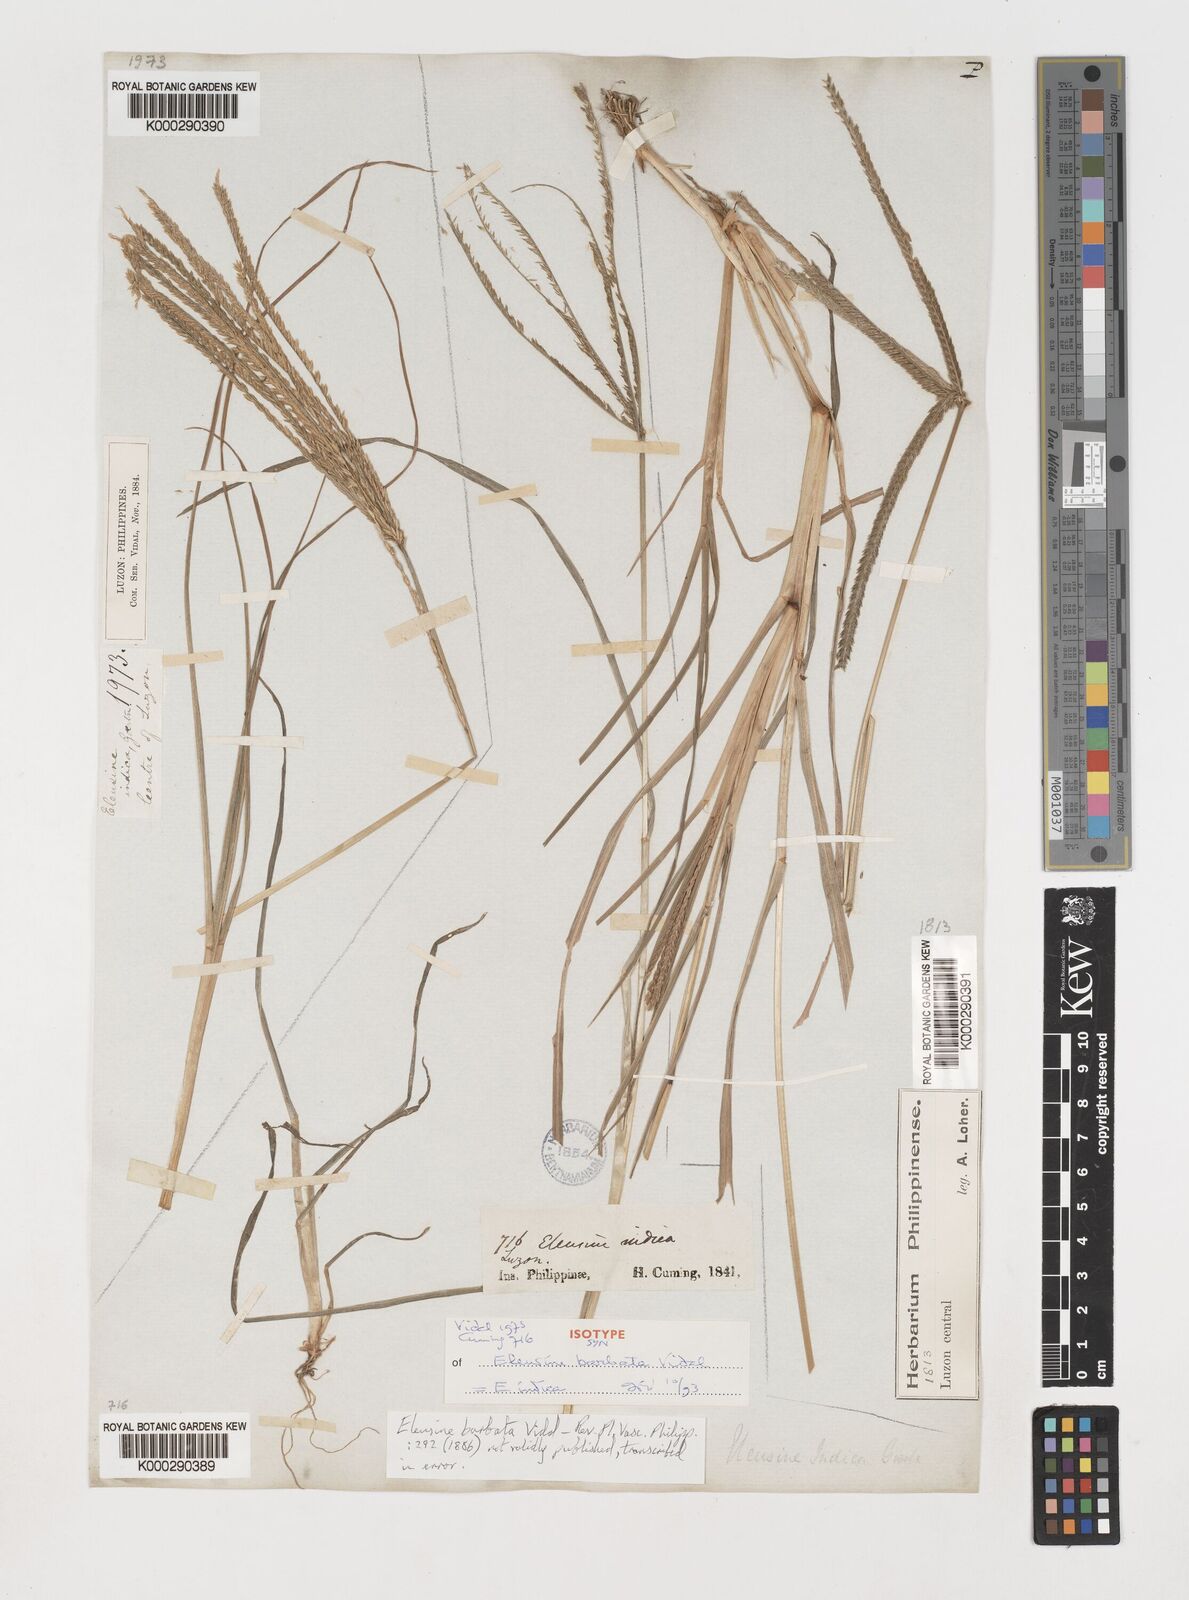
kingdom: Plantae
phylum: Tracheophyta
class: Liliopsida
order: Poales
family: Poaceae
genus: Eleusine
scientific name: Eleusine indica
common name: Yard-grass
